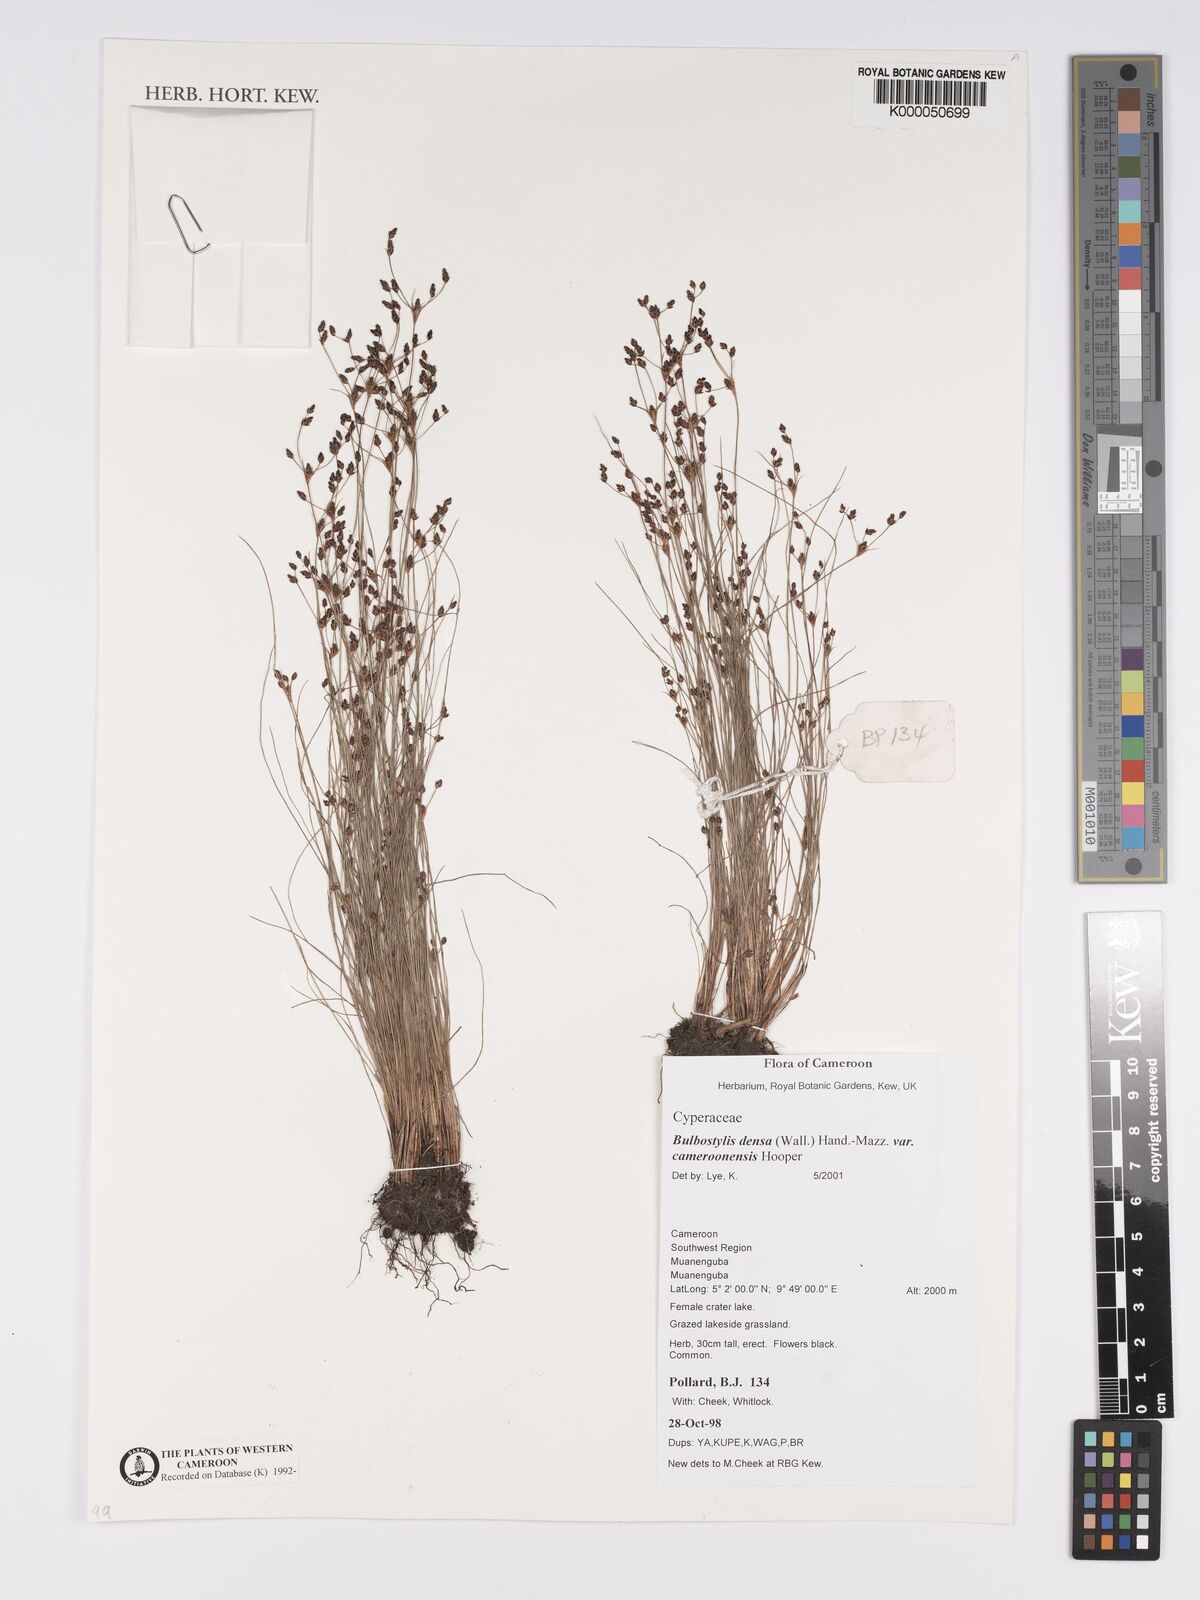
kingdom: Plantae
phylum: Tracheophyta
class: Liliopsida
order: Poales
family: Cyperaceae
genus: Bulbostylis
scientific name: Bulbostylis densa
